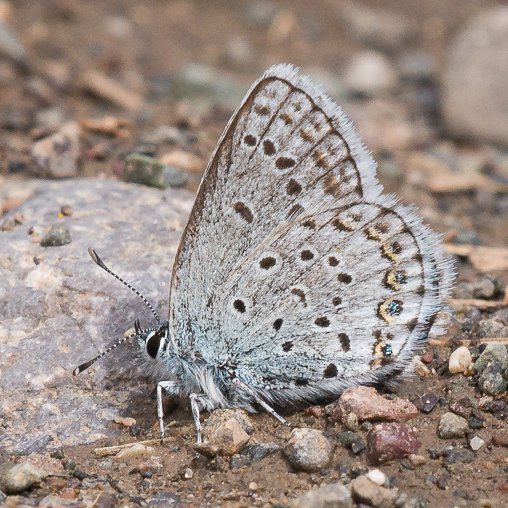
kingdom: Animalia
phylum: Arthropoda
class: Insecta
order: Lepidoptera
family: Lycaenidae
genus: Lycaeides
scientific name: Lycaeides idas
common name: Northern Blue
